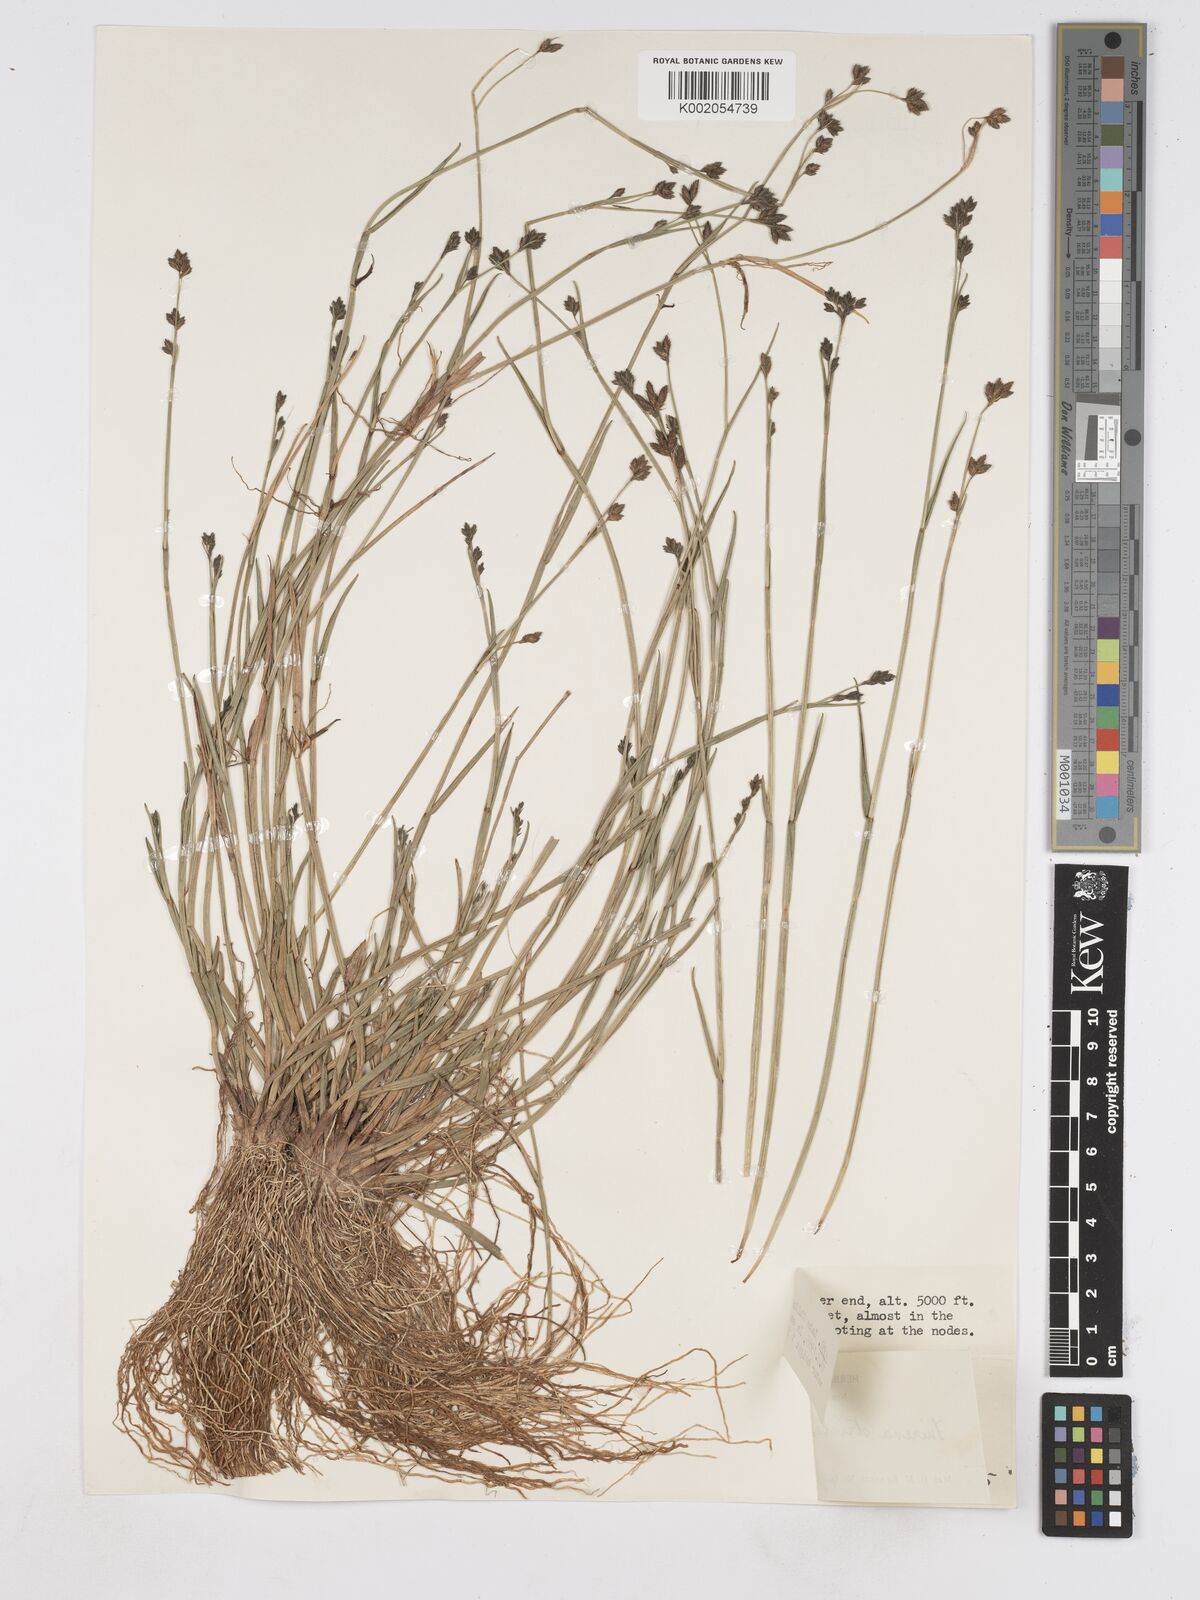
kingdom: Plantae
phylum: Tracheophyta
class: Liliopsida
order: Poales
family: Cyperaceae
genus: Fuirena
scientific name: Fuirena stricta
